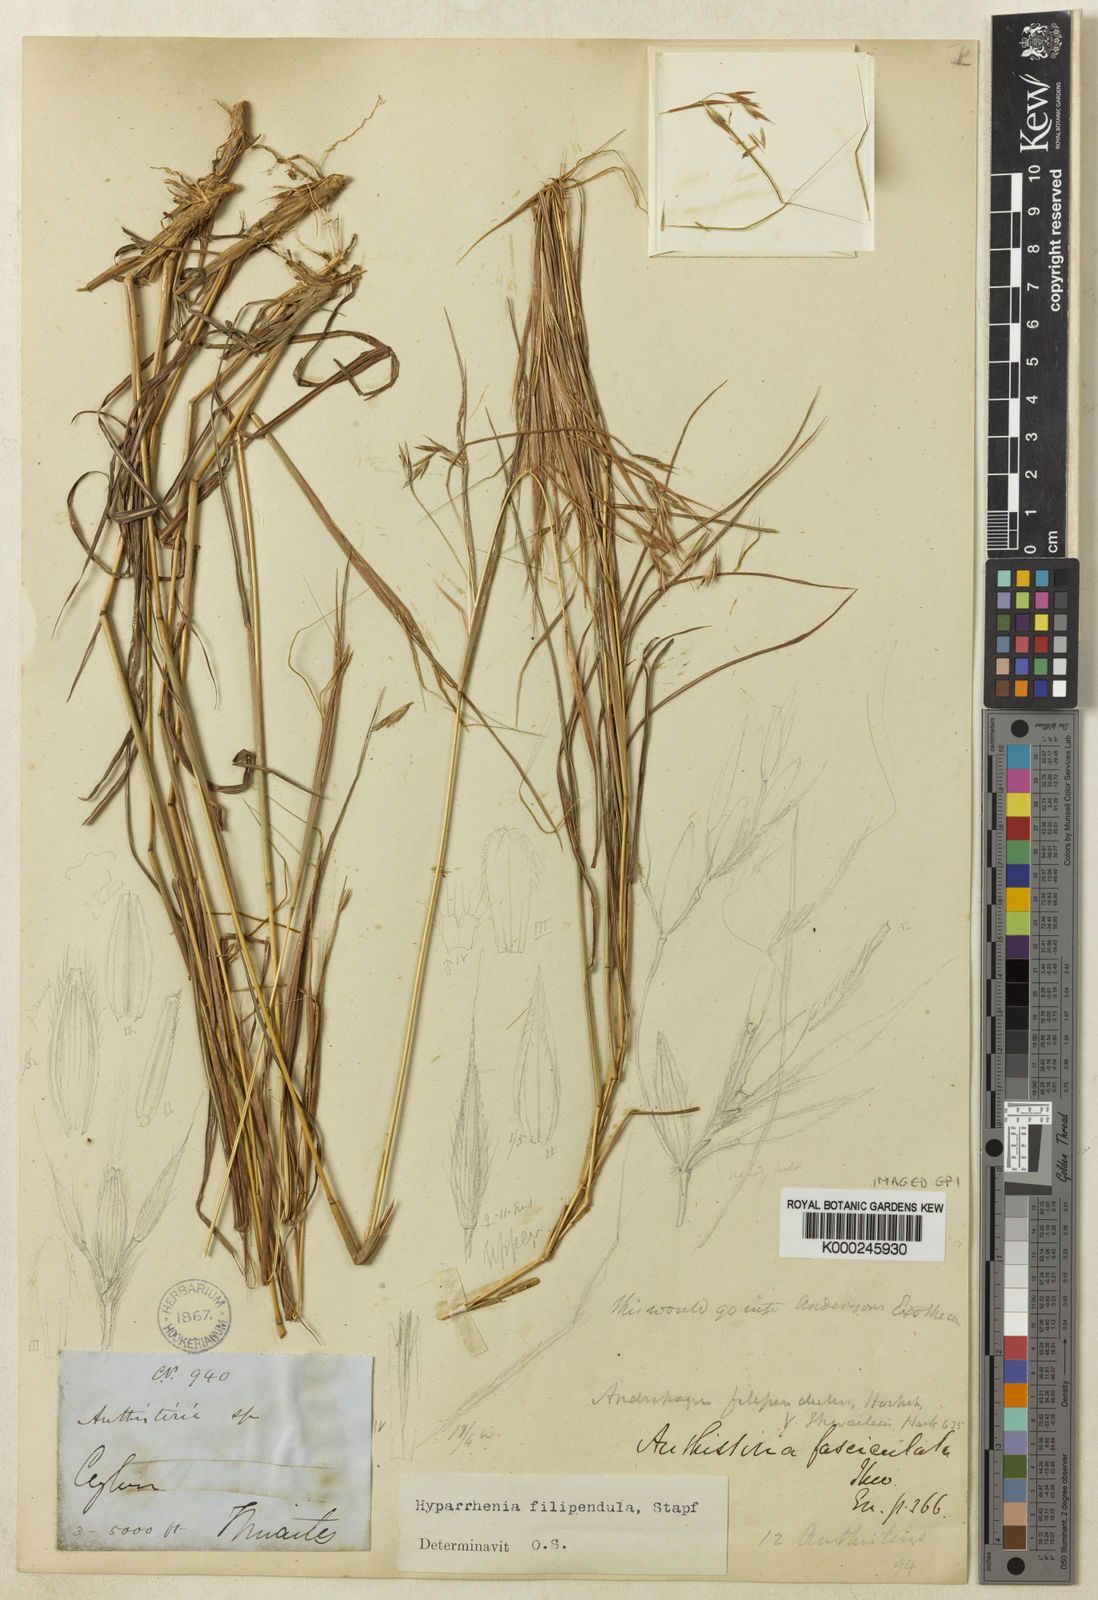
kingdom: Plantae
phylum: Tracheophyta
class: Liliopsida
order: Poales
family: Poaceae
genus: Hyparrhenia
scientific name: Hyparrhenia filipendula
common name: Tambookie grass
